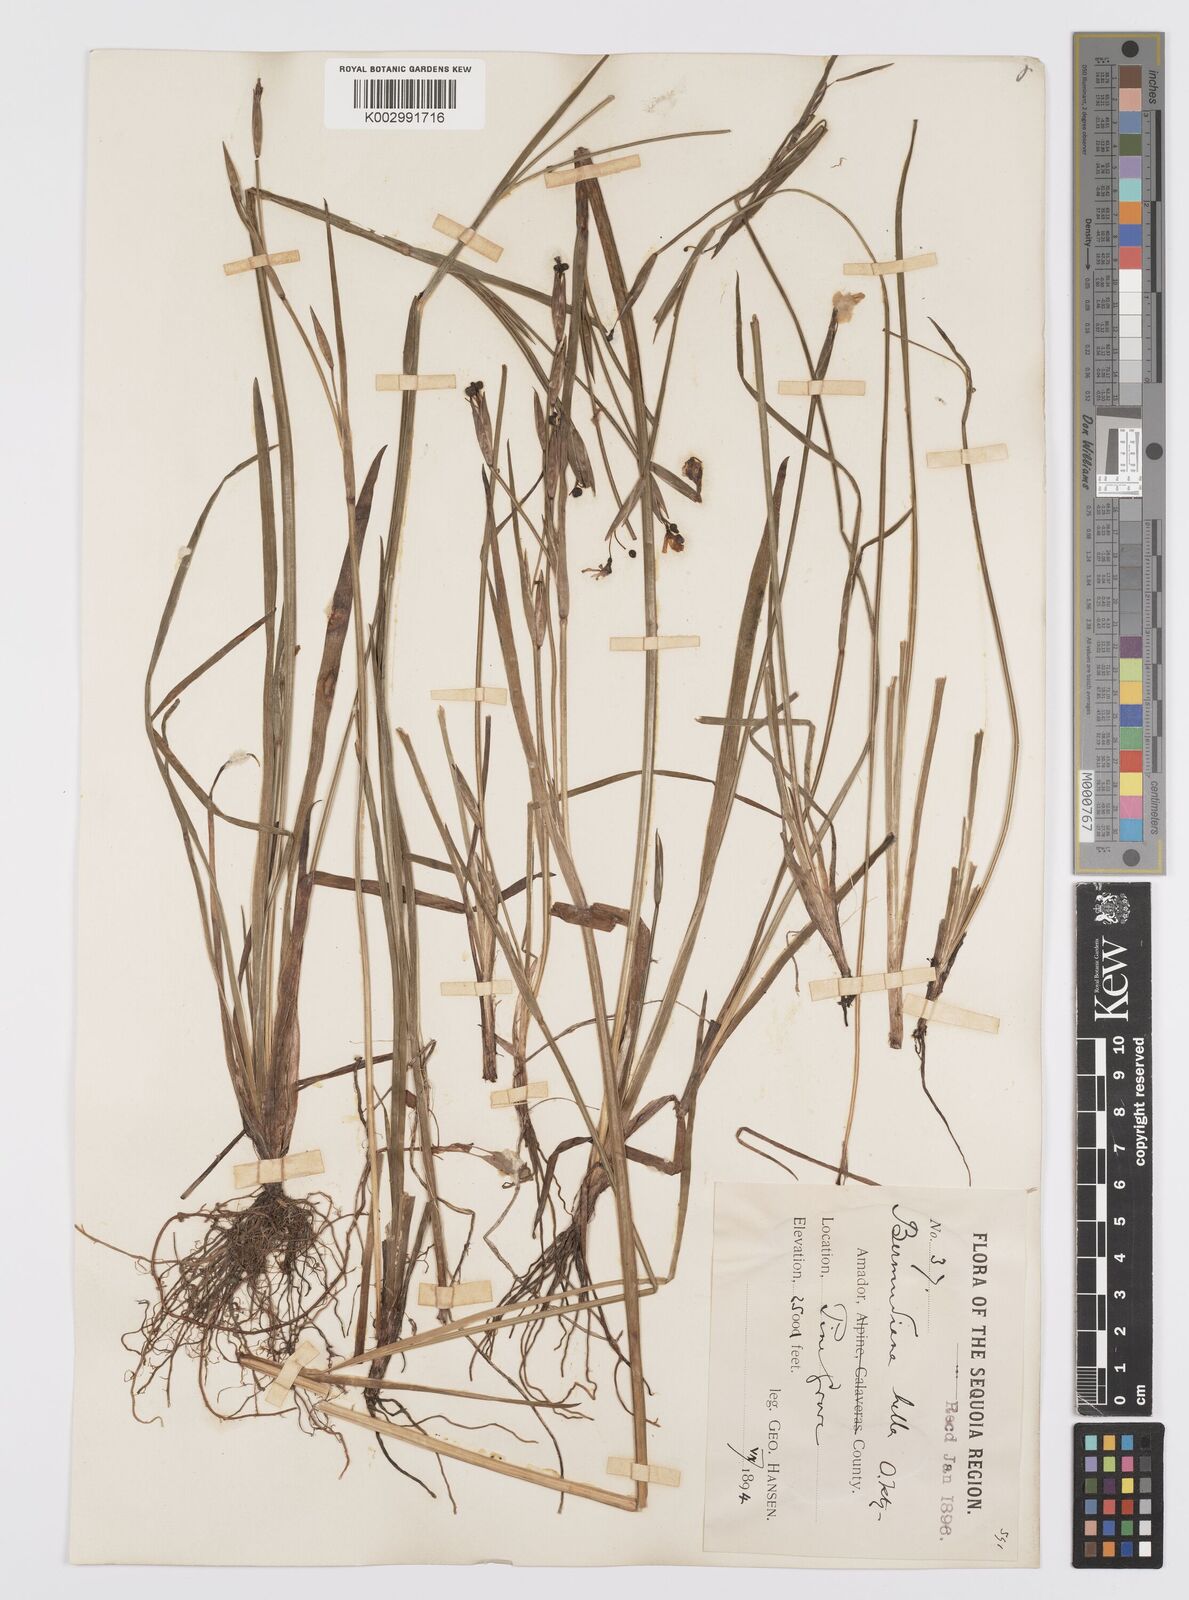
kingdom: Plantae
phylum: Tracheophyta
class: Liliopsida
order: Asparagales
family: Iridaceae
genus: Sisyrinchium
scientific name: Sisyrinchium bellum
